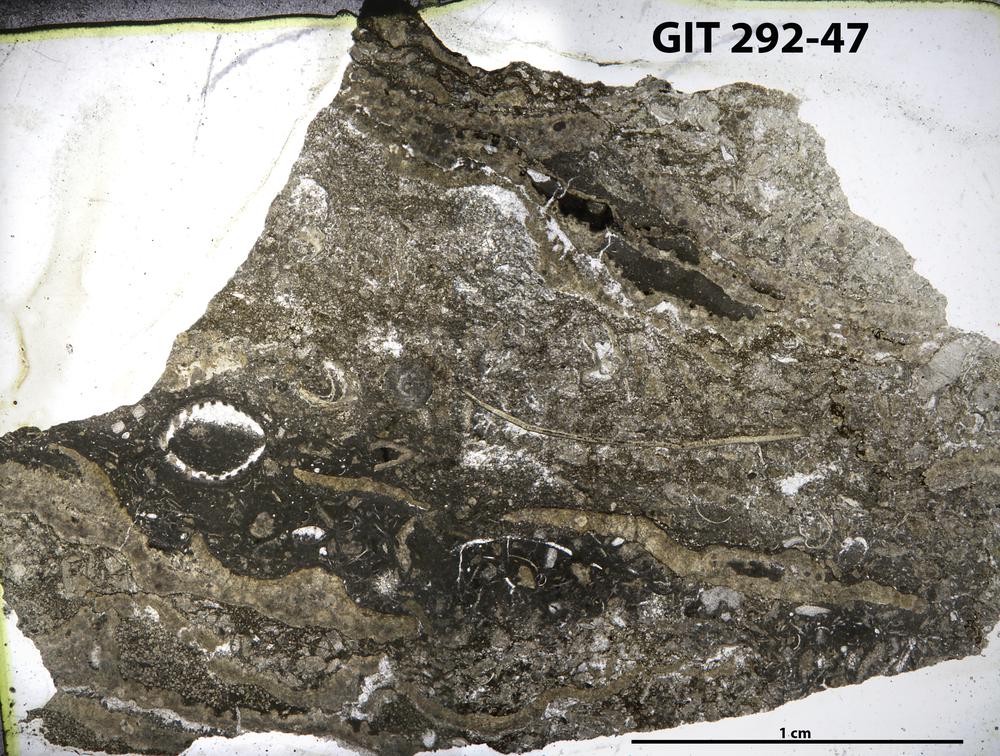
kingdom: Animalia
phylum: Porifera
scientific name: Porifera
